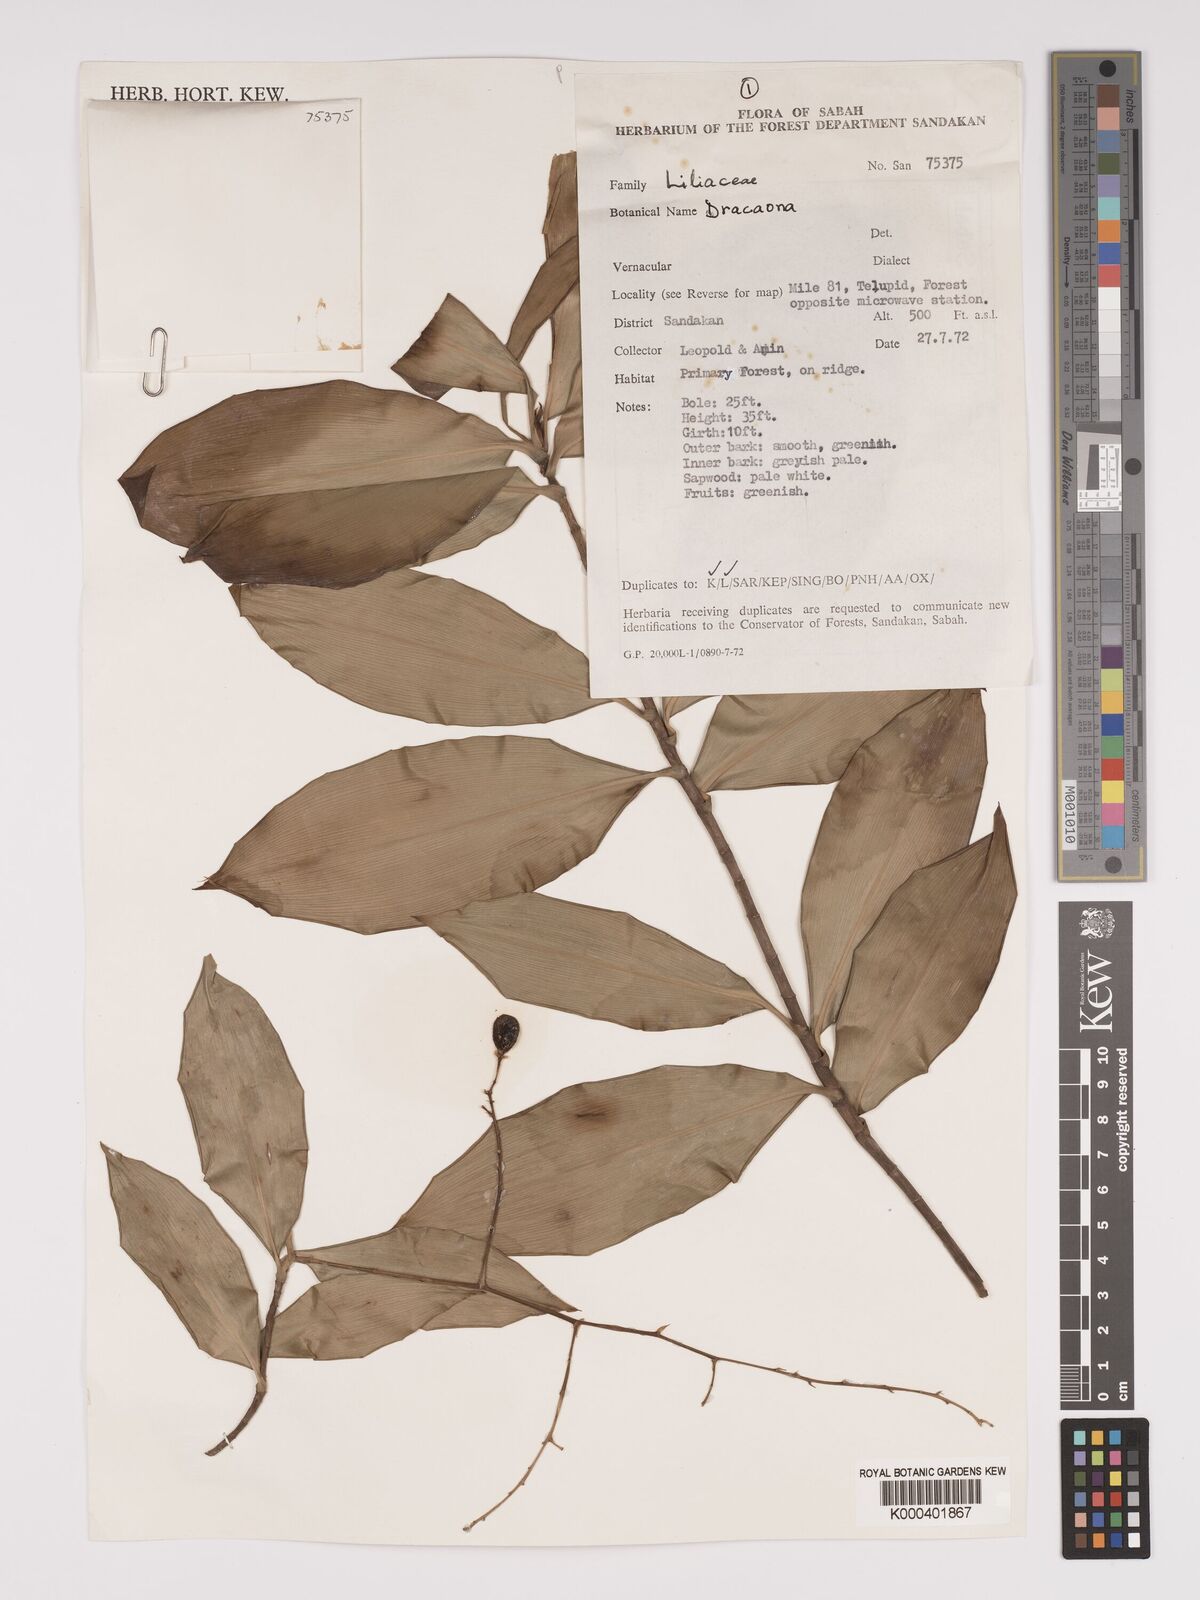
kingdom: Plantae
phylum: Tracheophyta
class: Liliopsida
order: Asparagales
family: Asparagaceae
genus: Dracaena
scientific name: Dracaena
